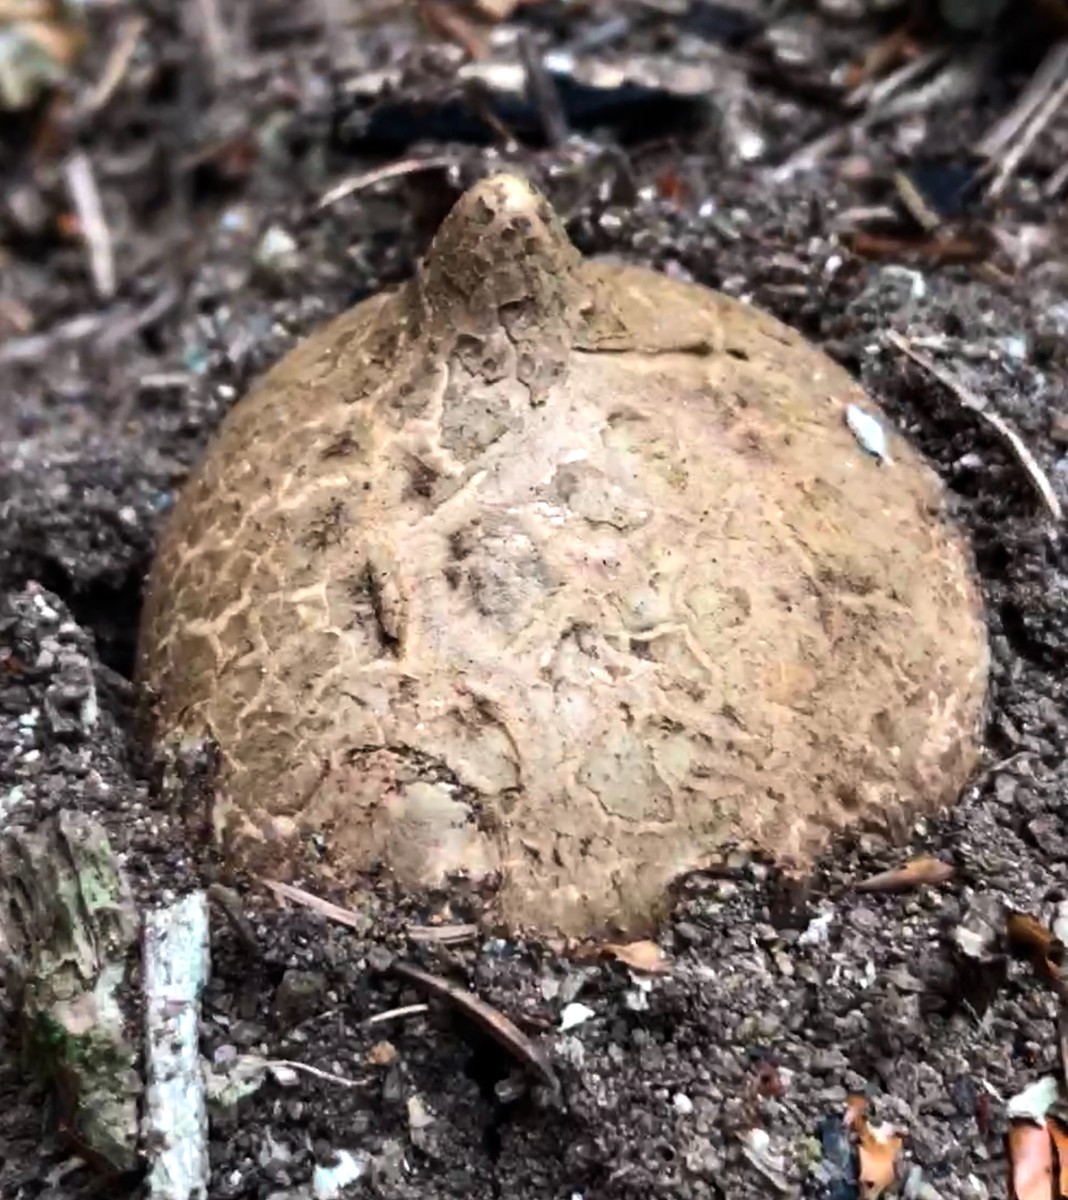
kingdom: Fungi
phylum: Basidiomycota
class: Agaricomycetes
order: Geastrales
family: Geastraceae
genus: Geastrum
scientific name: Geastrum michelianum
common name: kødet stjernebold
